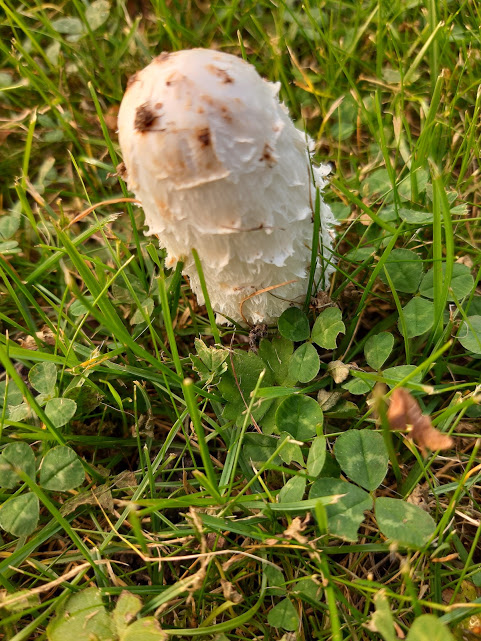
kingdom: Fungi
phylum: Basidiomycota
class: Agaricomycetes
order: Agaricales
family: Agaricaceae
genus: Coprinus
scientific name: Coprinus comatus
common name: stor parykhat
